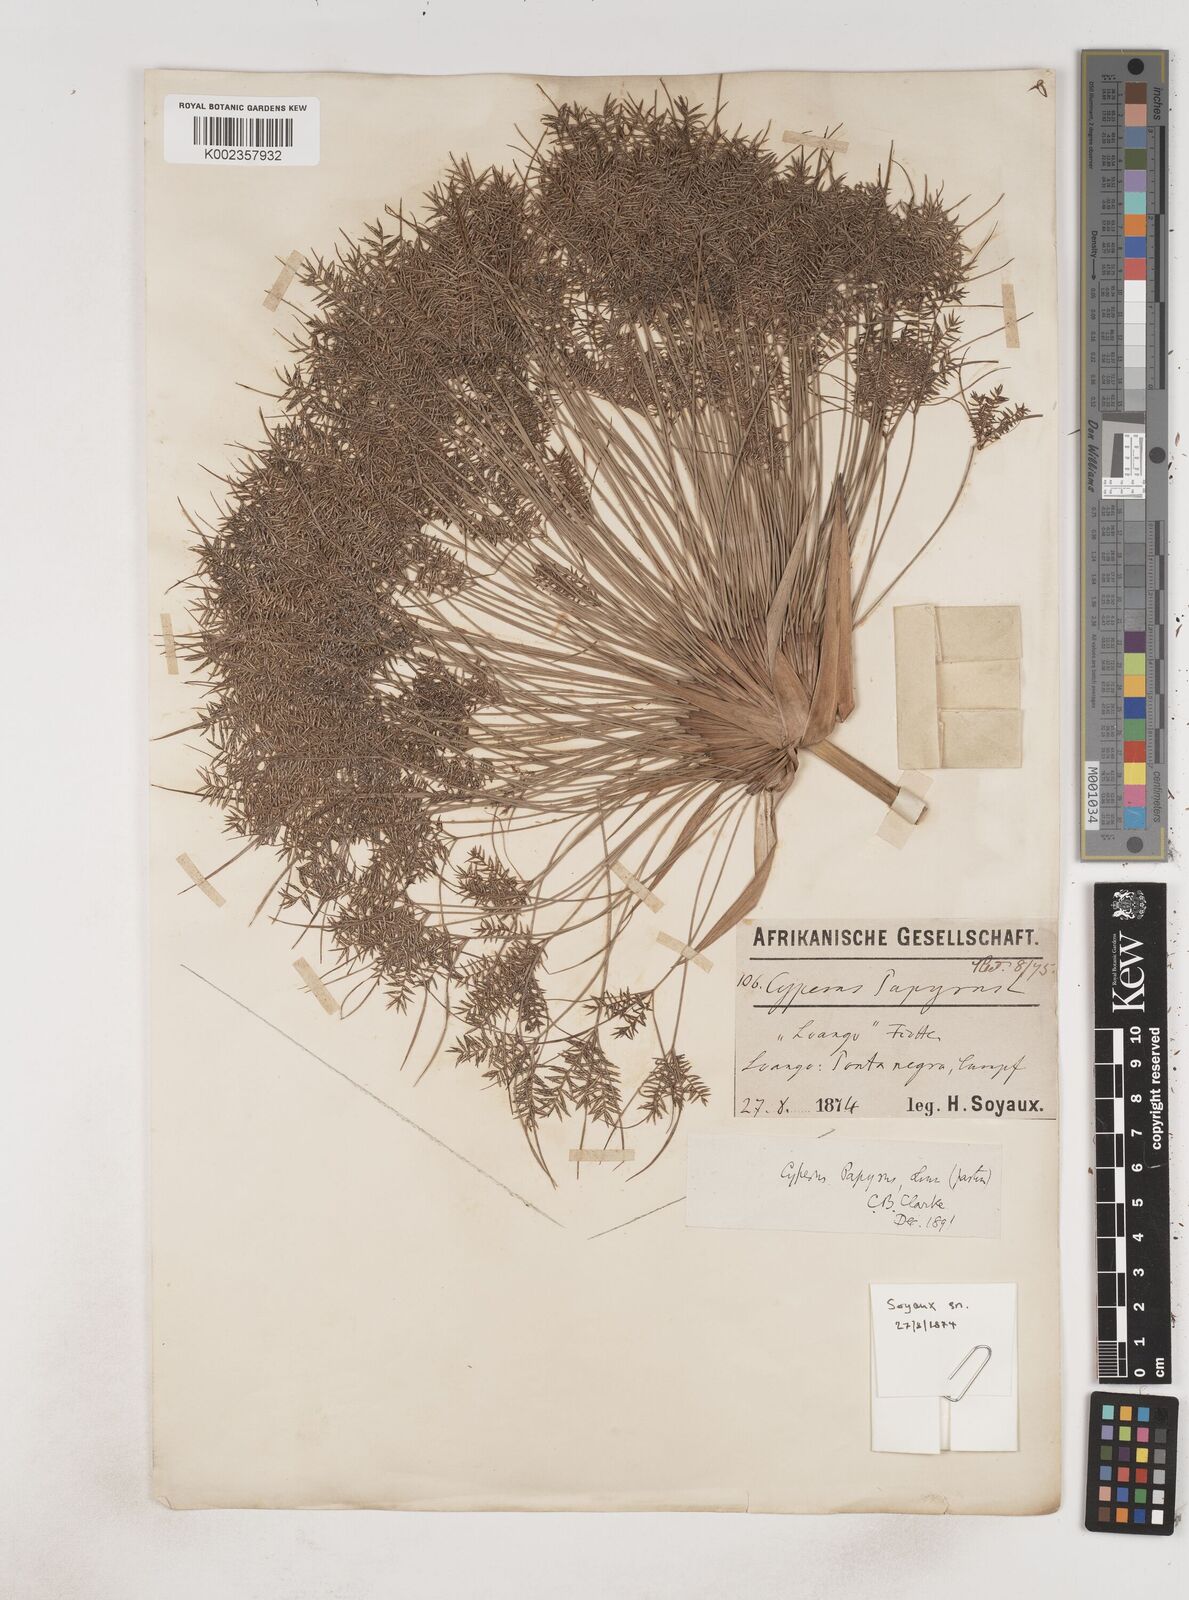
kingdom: Plantae
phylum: Tracheophyta
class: Liliopsida
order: Poales
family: Cyperaceae
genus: Cyperus
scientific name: Cyperus papyrus
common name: Papyrus
